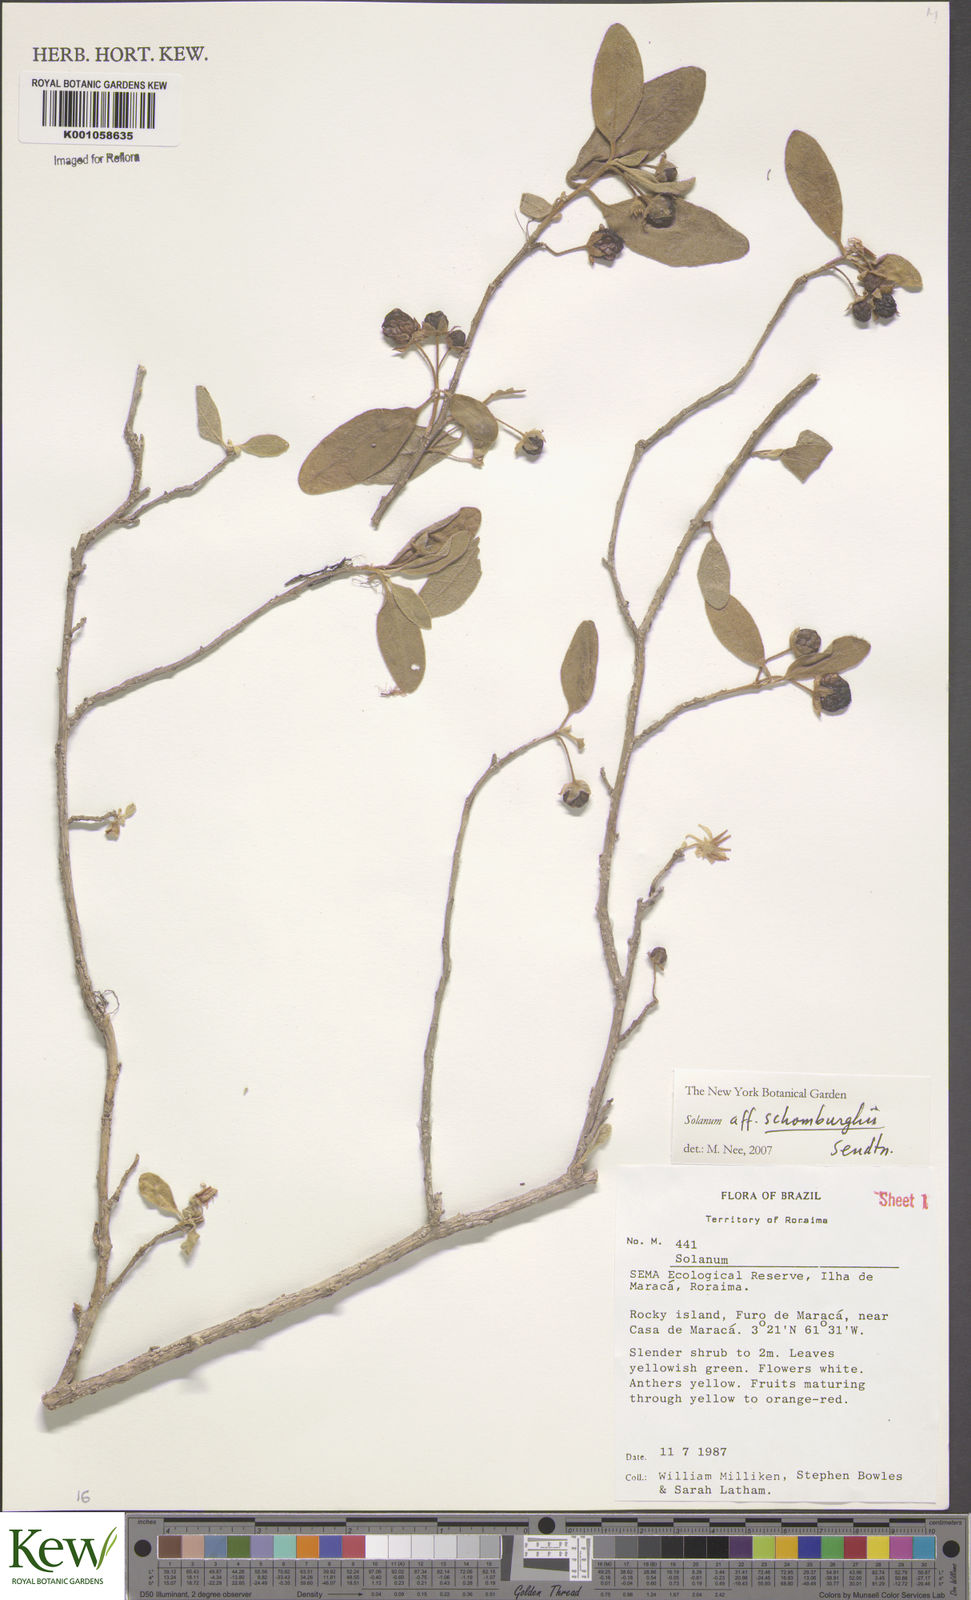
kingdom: Plantae
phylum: Tracheophyta
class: Magnoliopsida
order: Solanales
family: Solanaceae
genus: Solanum
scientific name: Solanum
